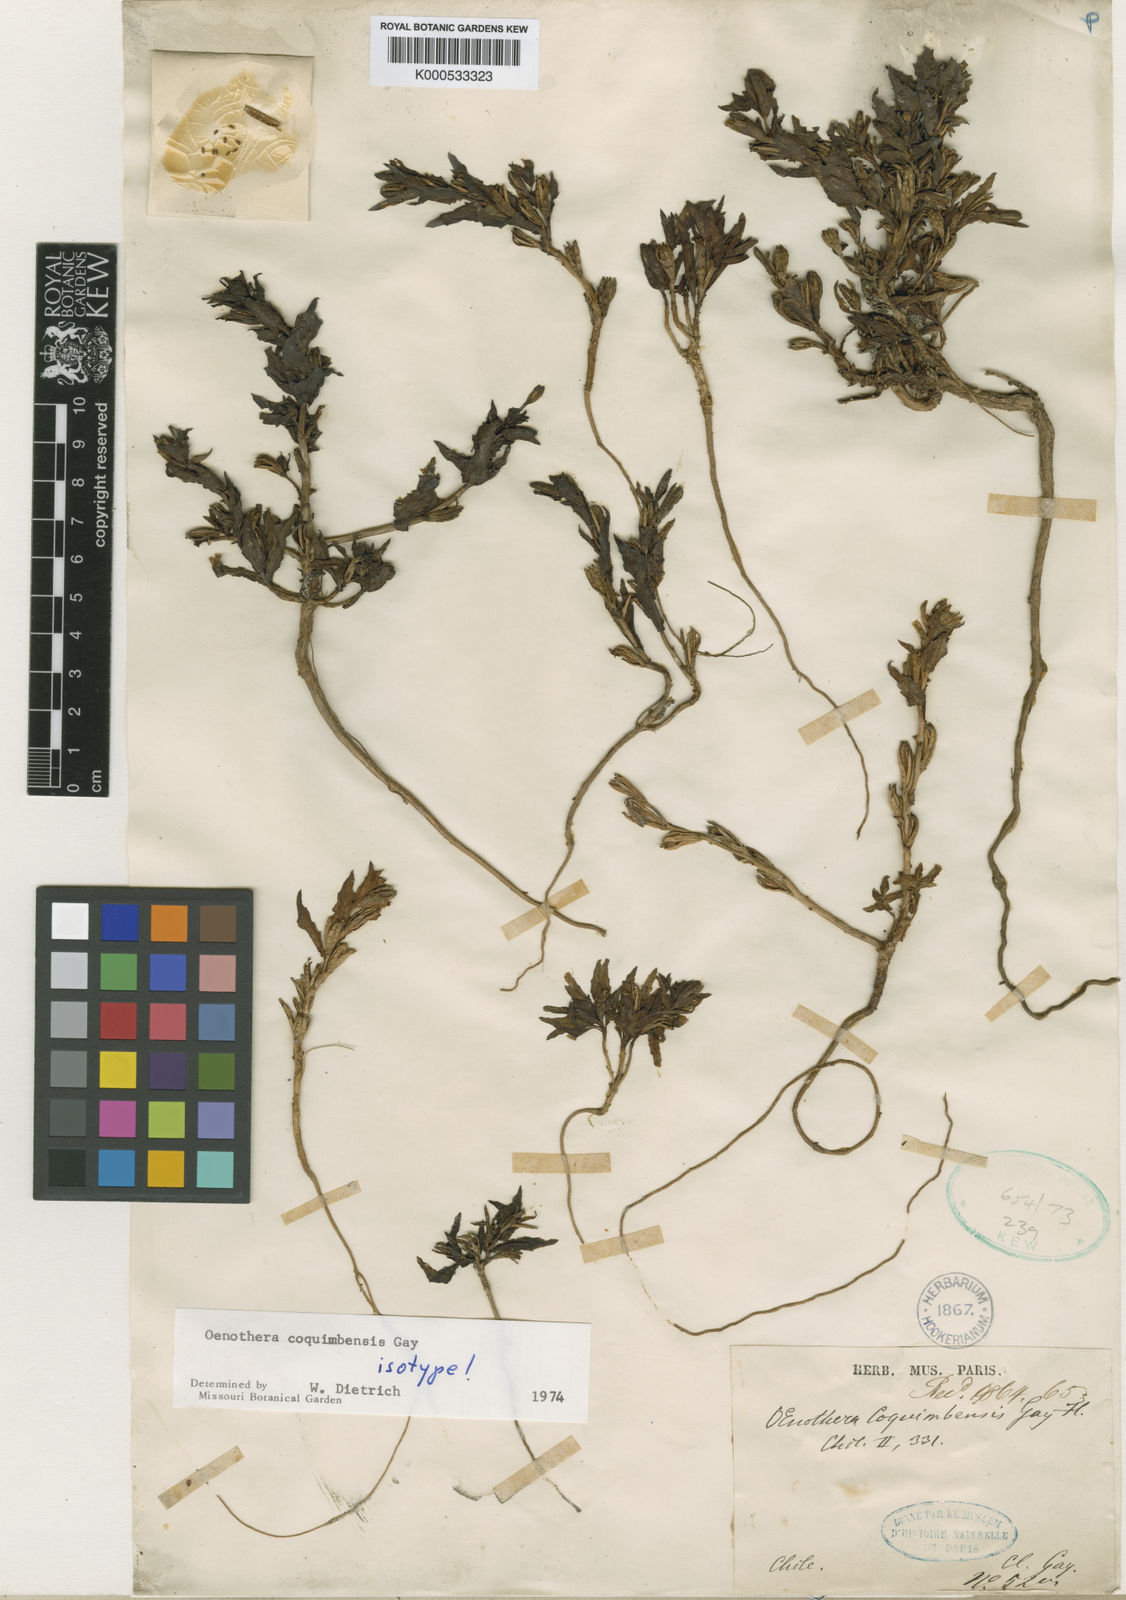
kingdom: Plantae
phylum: Tracheophyta
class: Magnoliopsida
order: Myrtales
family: Onagraceae
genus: Oenothera
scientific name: Oenothera coquimbensis
